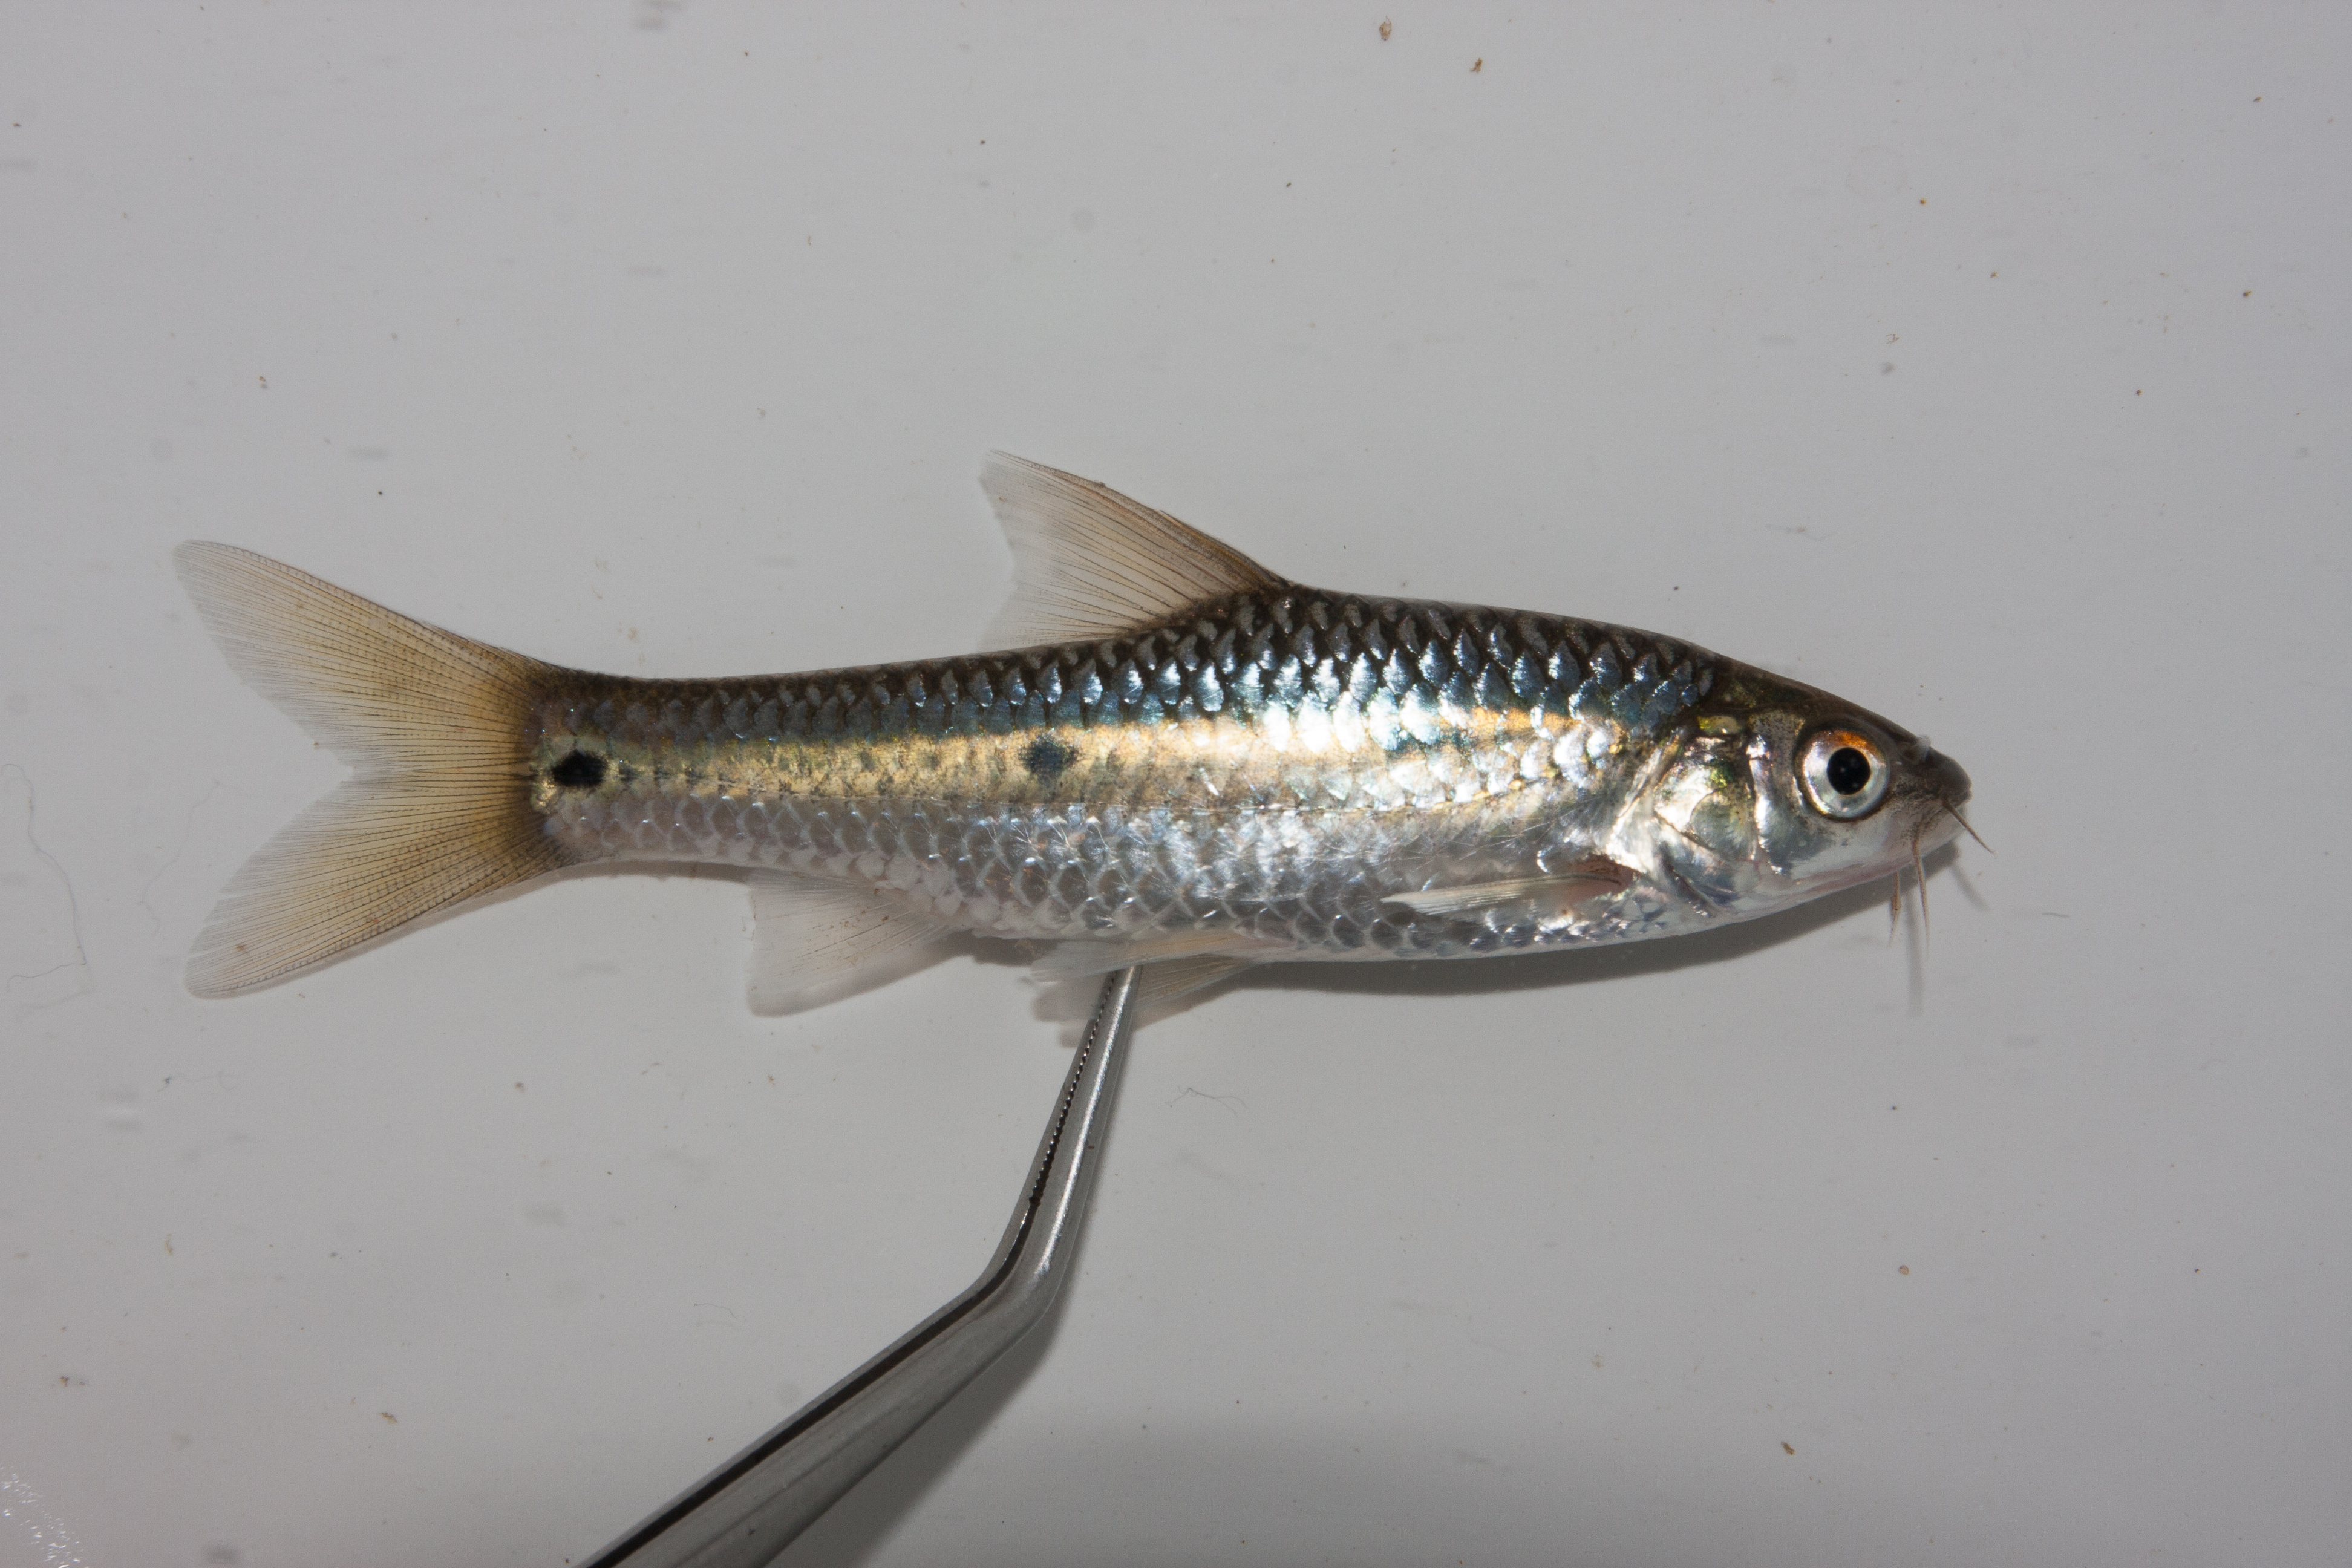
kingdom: Animalia
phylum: Chordata
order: Cypriniformes
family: Cyprinidae
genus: Enteromius
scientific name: Enteromius trimaculatus
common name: Threespot barb
